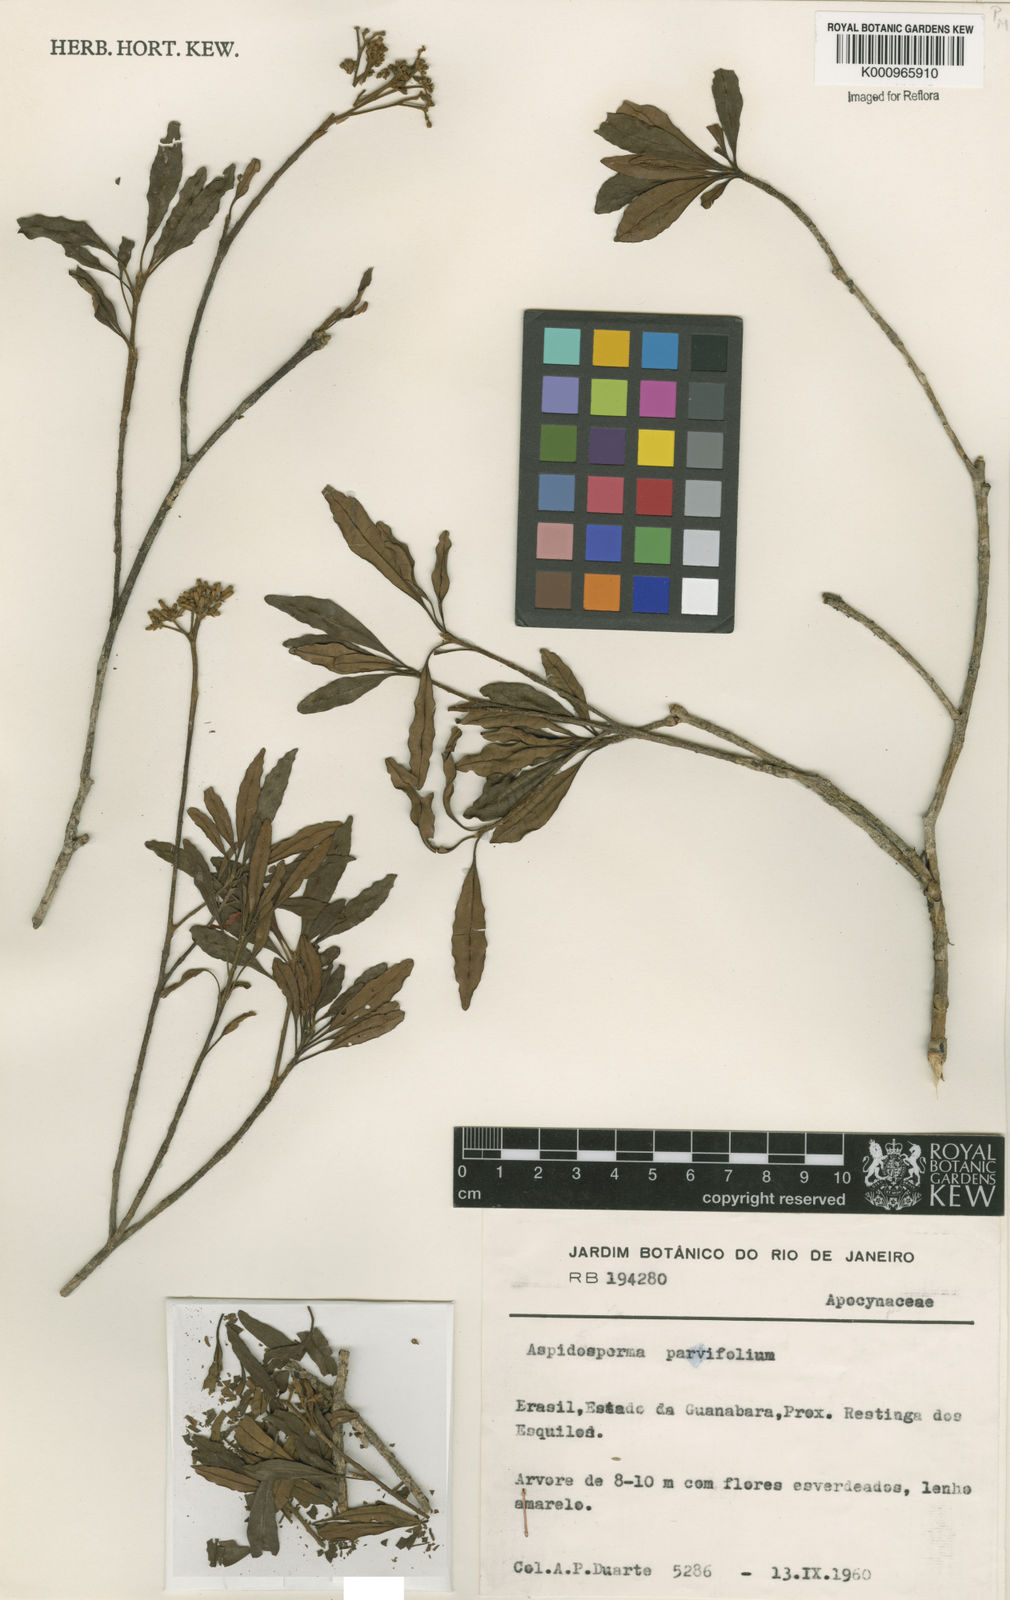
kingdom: Plantae
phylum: Tracheophyta
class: Magnoliopsida
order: Gentianales
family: Apocynaceae
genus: Aspidosperma
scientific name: Aspidosperma
